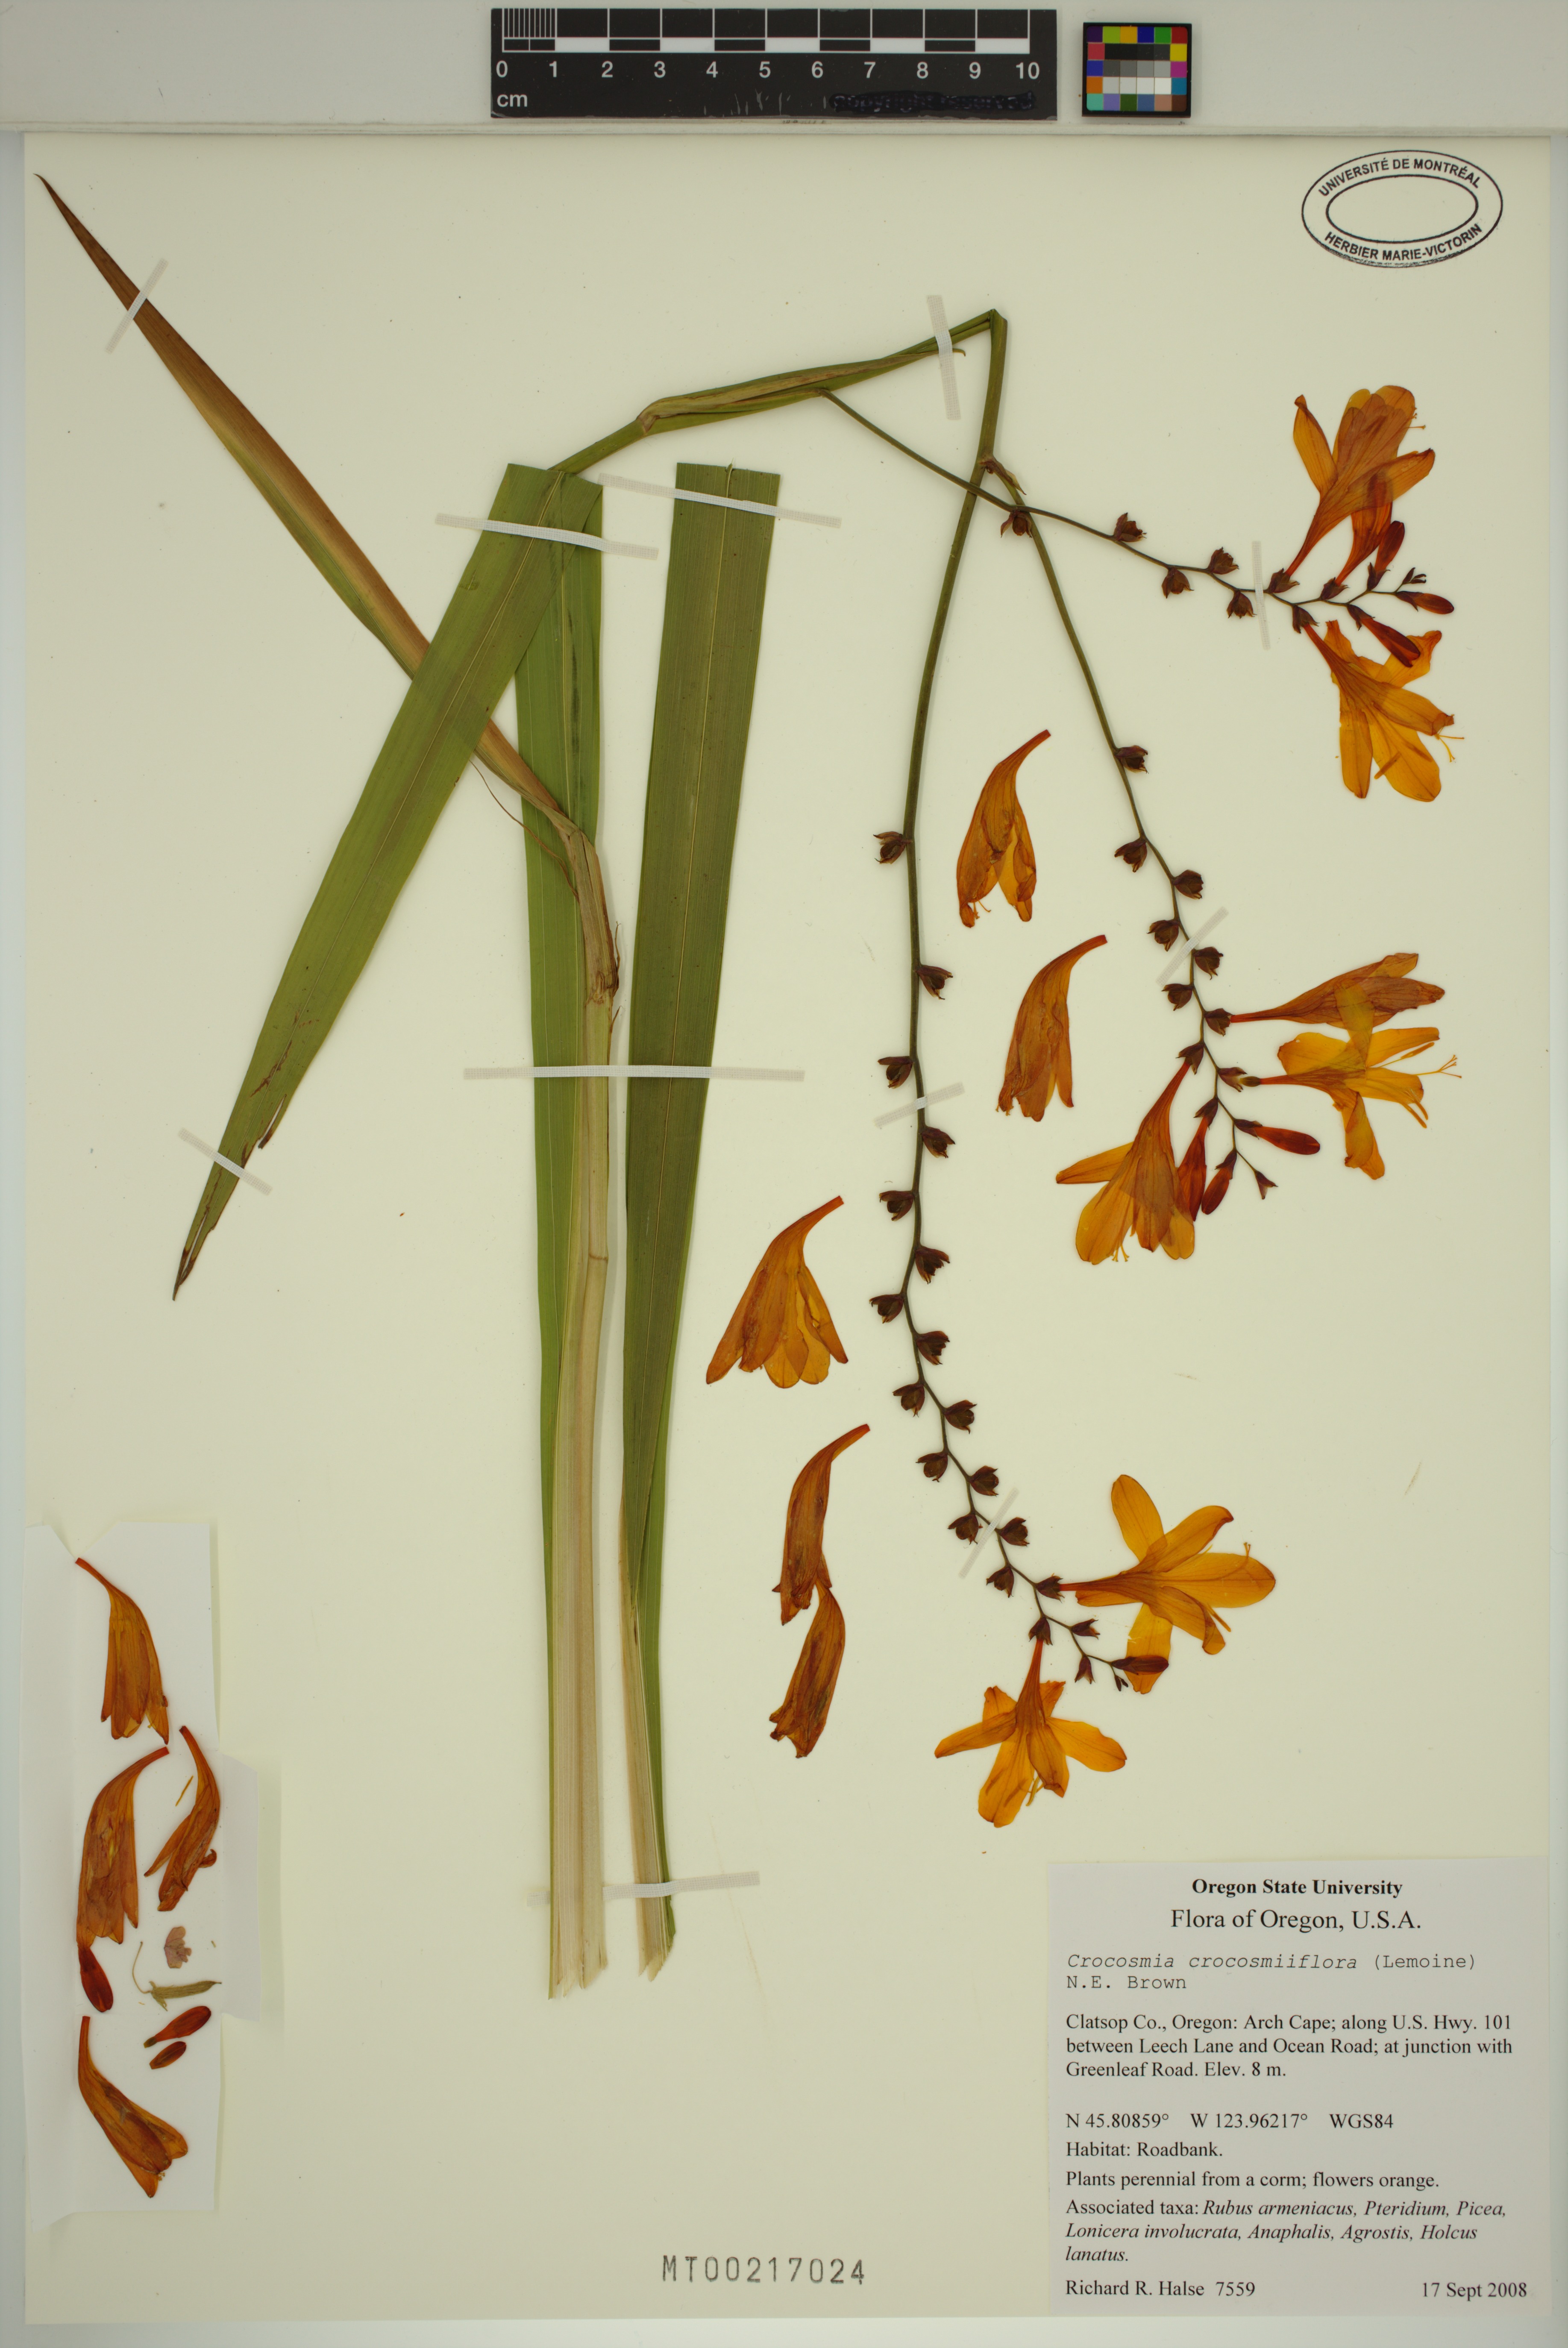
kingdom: Plantae
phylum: Tracheophyta
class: Liliopsida
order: Asparagales
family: Iridaceae
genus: Crocosmia
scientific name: Crocosmia crocosmiiflora
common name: Montbretia
